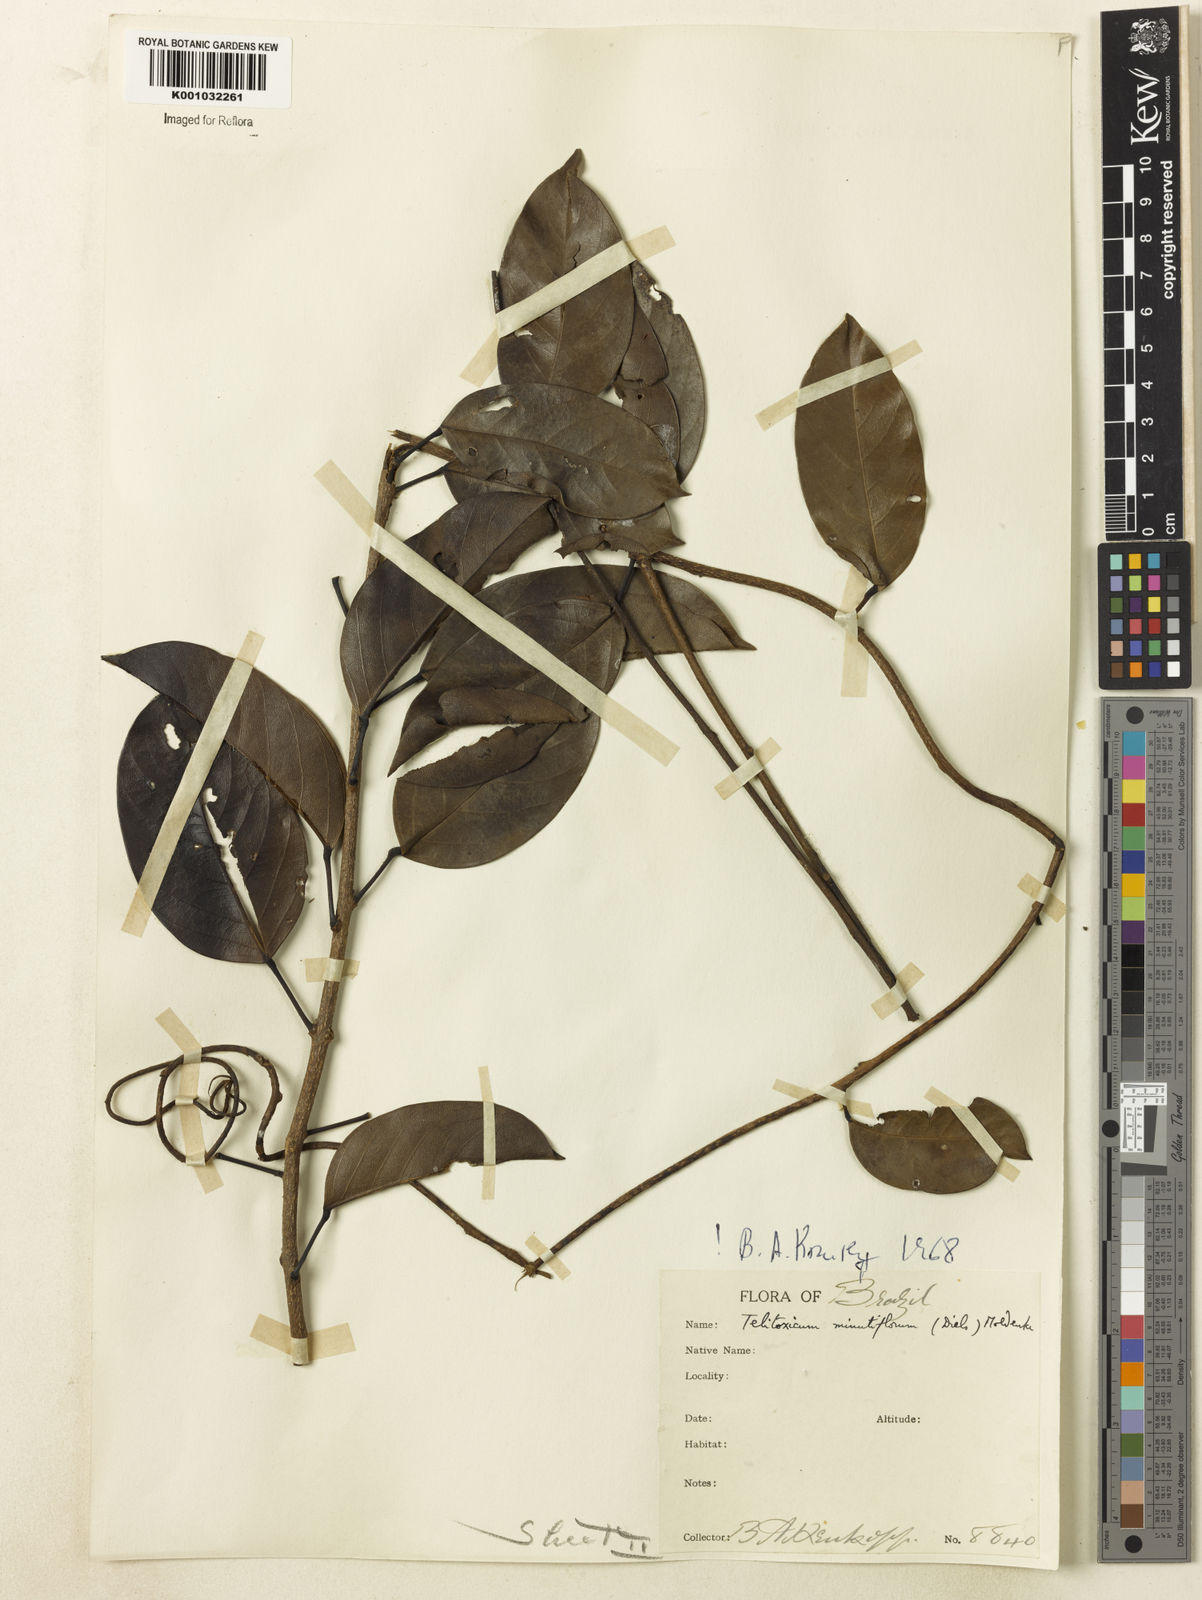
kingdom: Plantae
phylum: Tracheophyta
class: Magnoliopsida
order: Ranunculales
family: Menispermaceae
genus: Telitoxicum
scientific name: Telitoxicum minutiflorum
